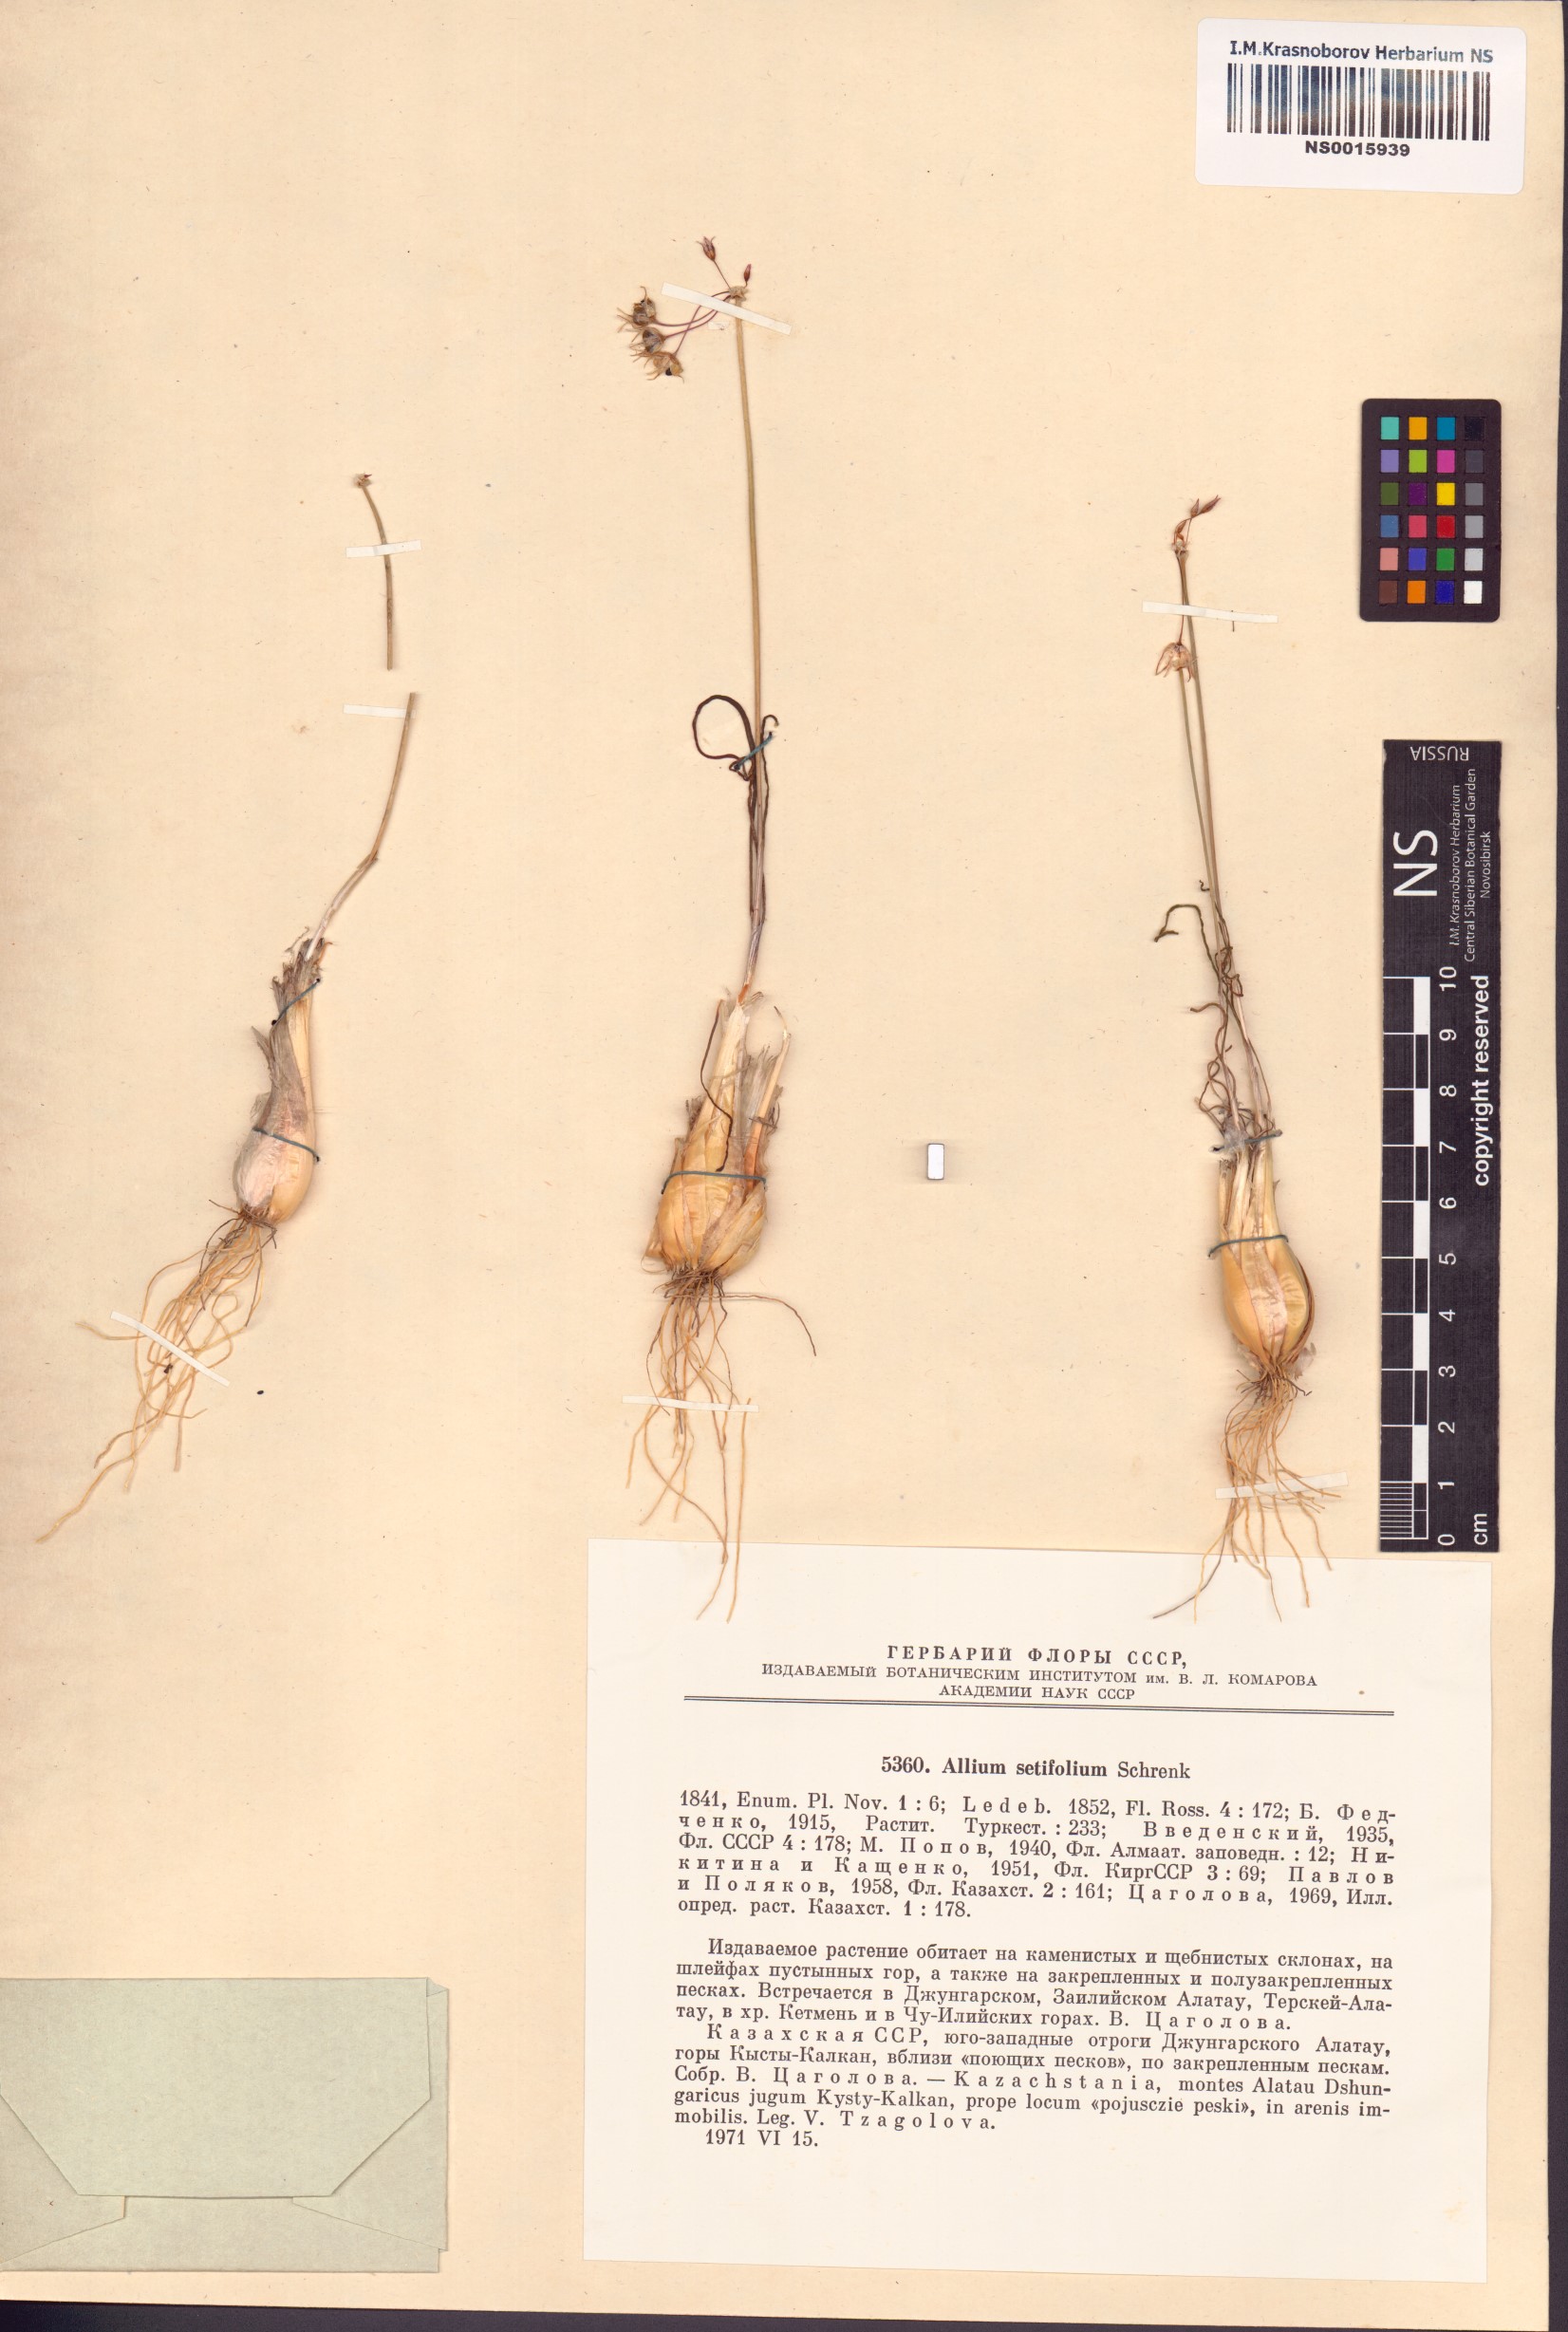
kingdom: Plantae
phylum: Tracheophyta
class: Liliopsida
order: Asparagales
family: Amaryllidaceae
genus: Allium
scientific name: Allium setifolium
